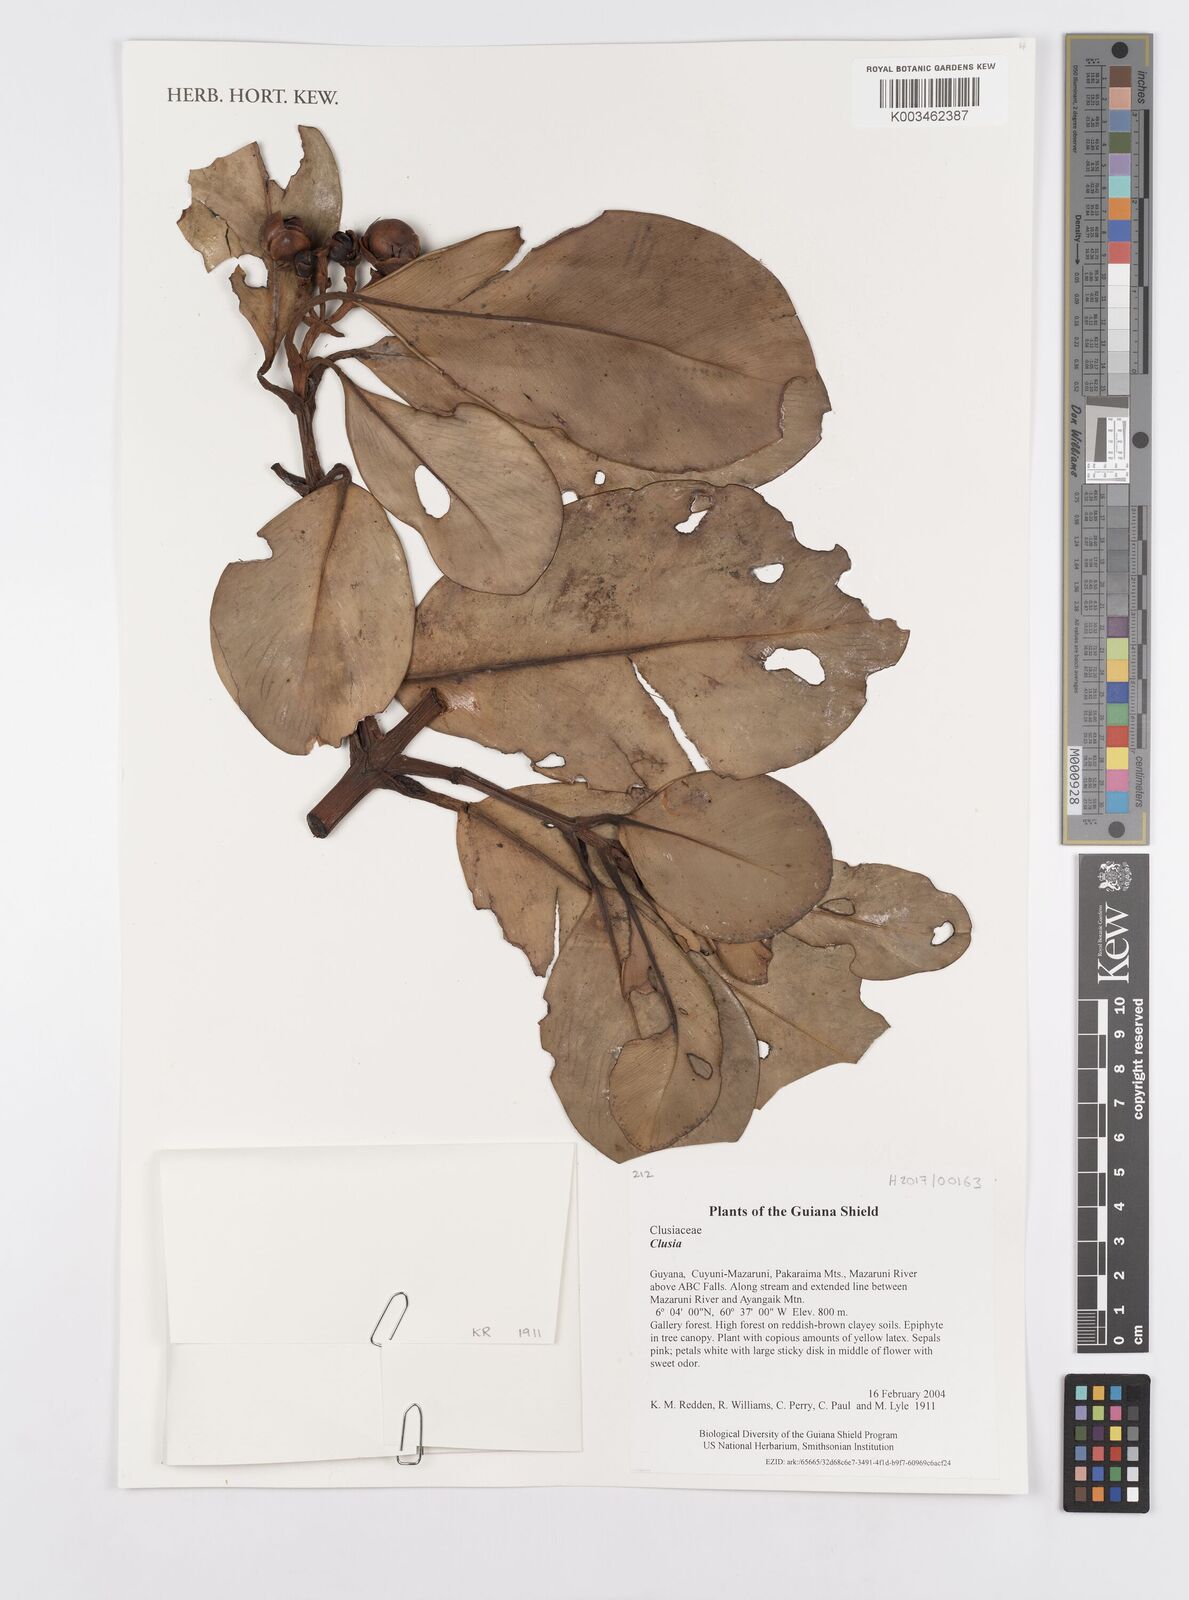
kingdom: Plantae
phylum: Tracheophyta
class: Magnoliopsida
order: Malpighiales
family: Clusiaceae
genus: Clusia
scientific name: Clusia
